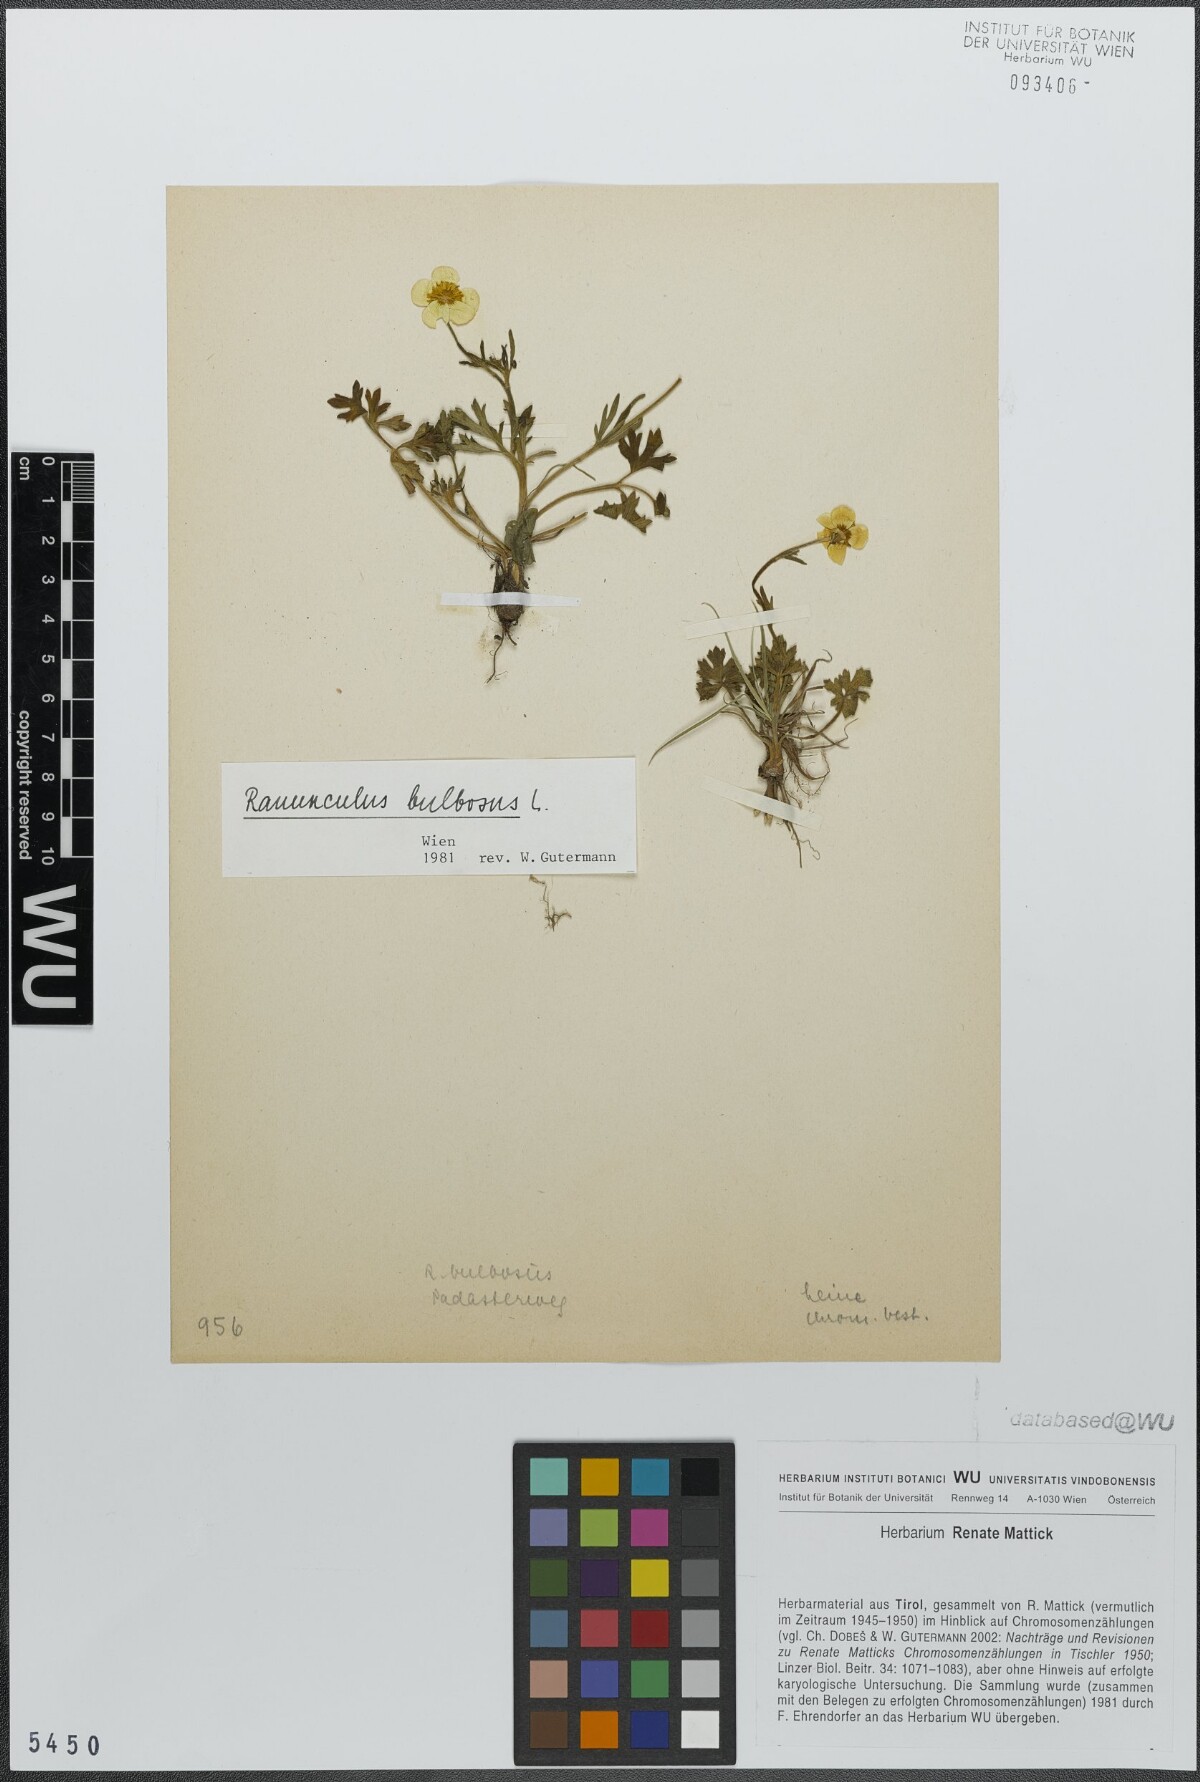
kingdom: Plantae
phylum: Tracheophyta
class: Magnoliopsida
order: Ranunculales
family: Ranunculaceae
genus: Ranunculus
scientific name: Ranunculus bulbosus
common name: Bulbous buttercup
